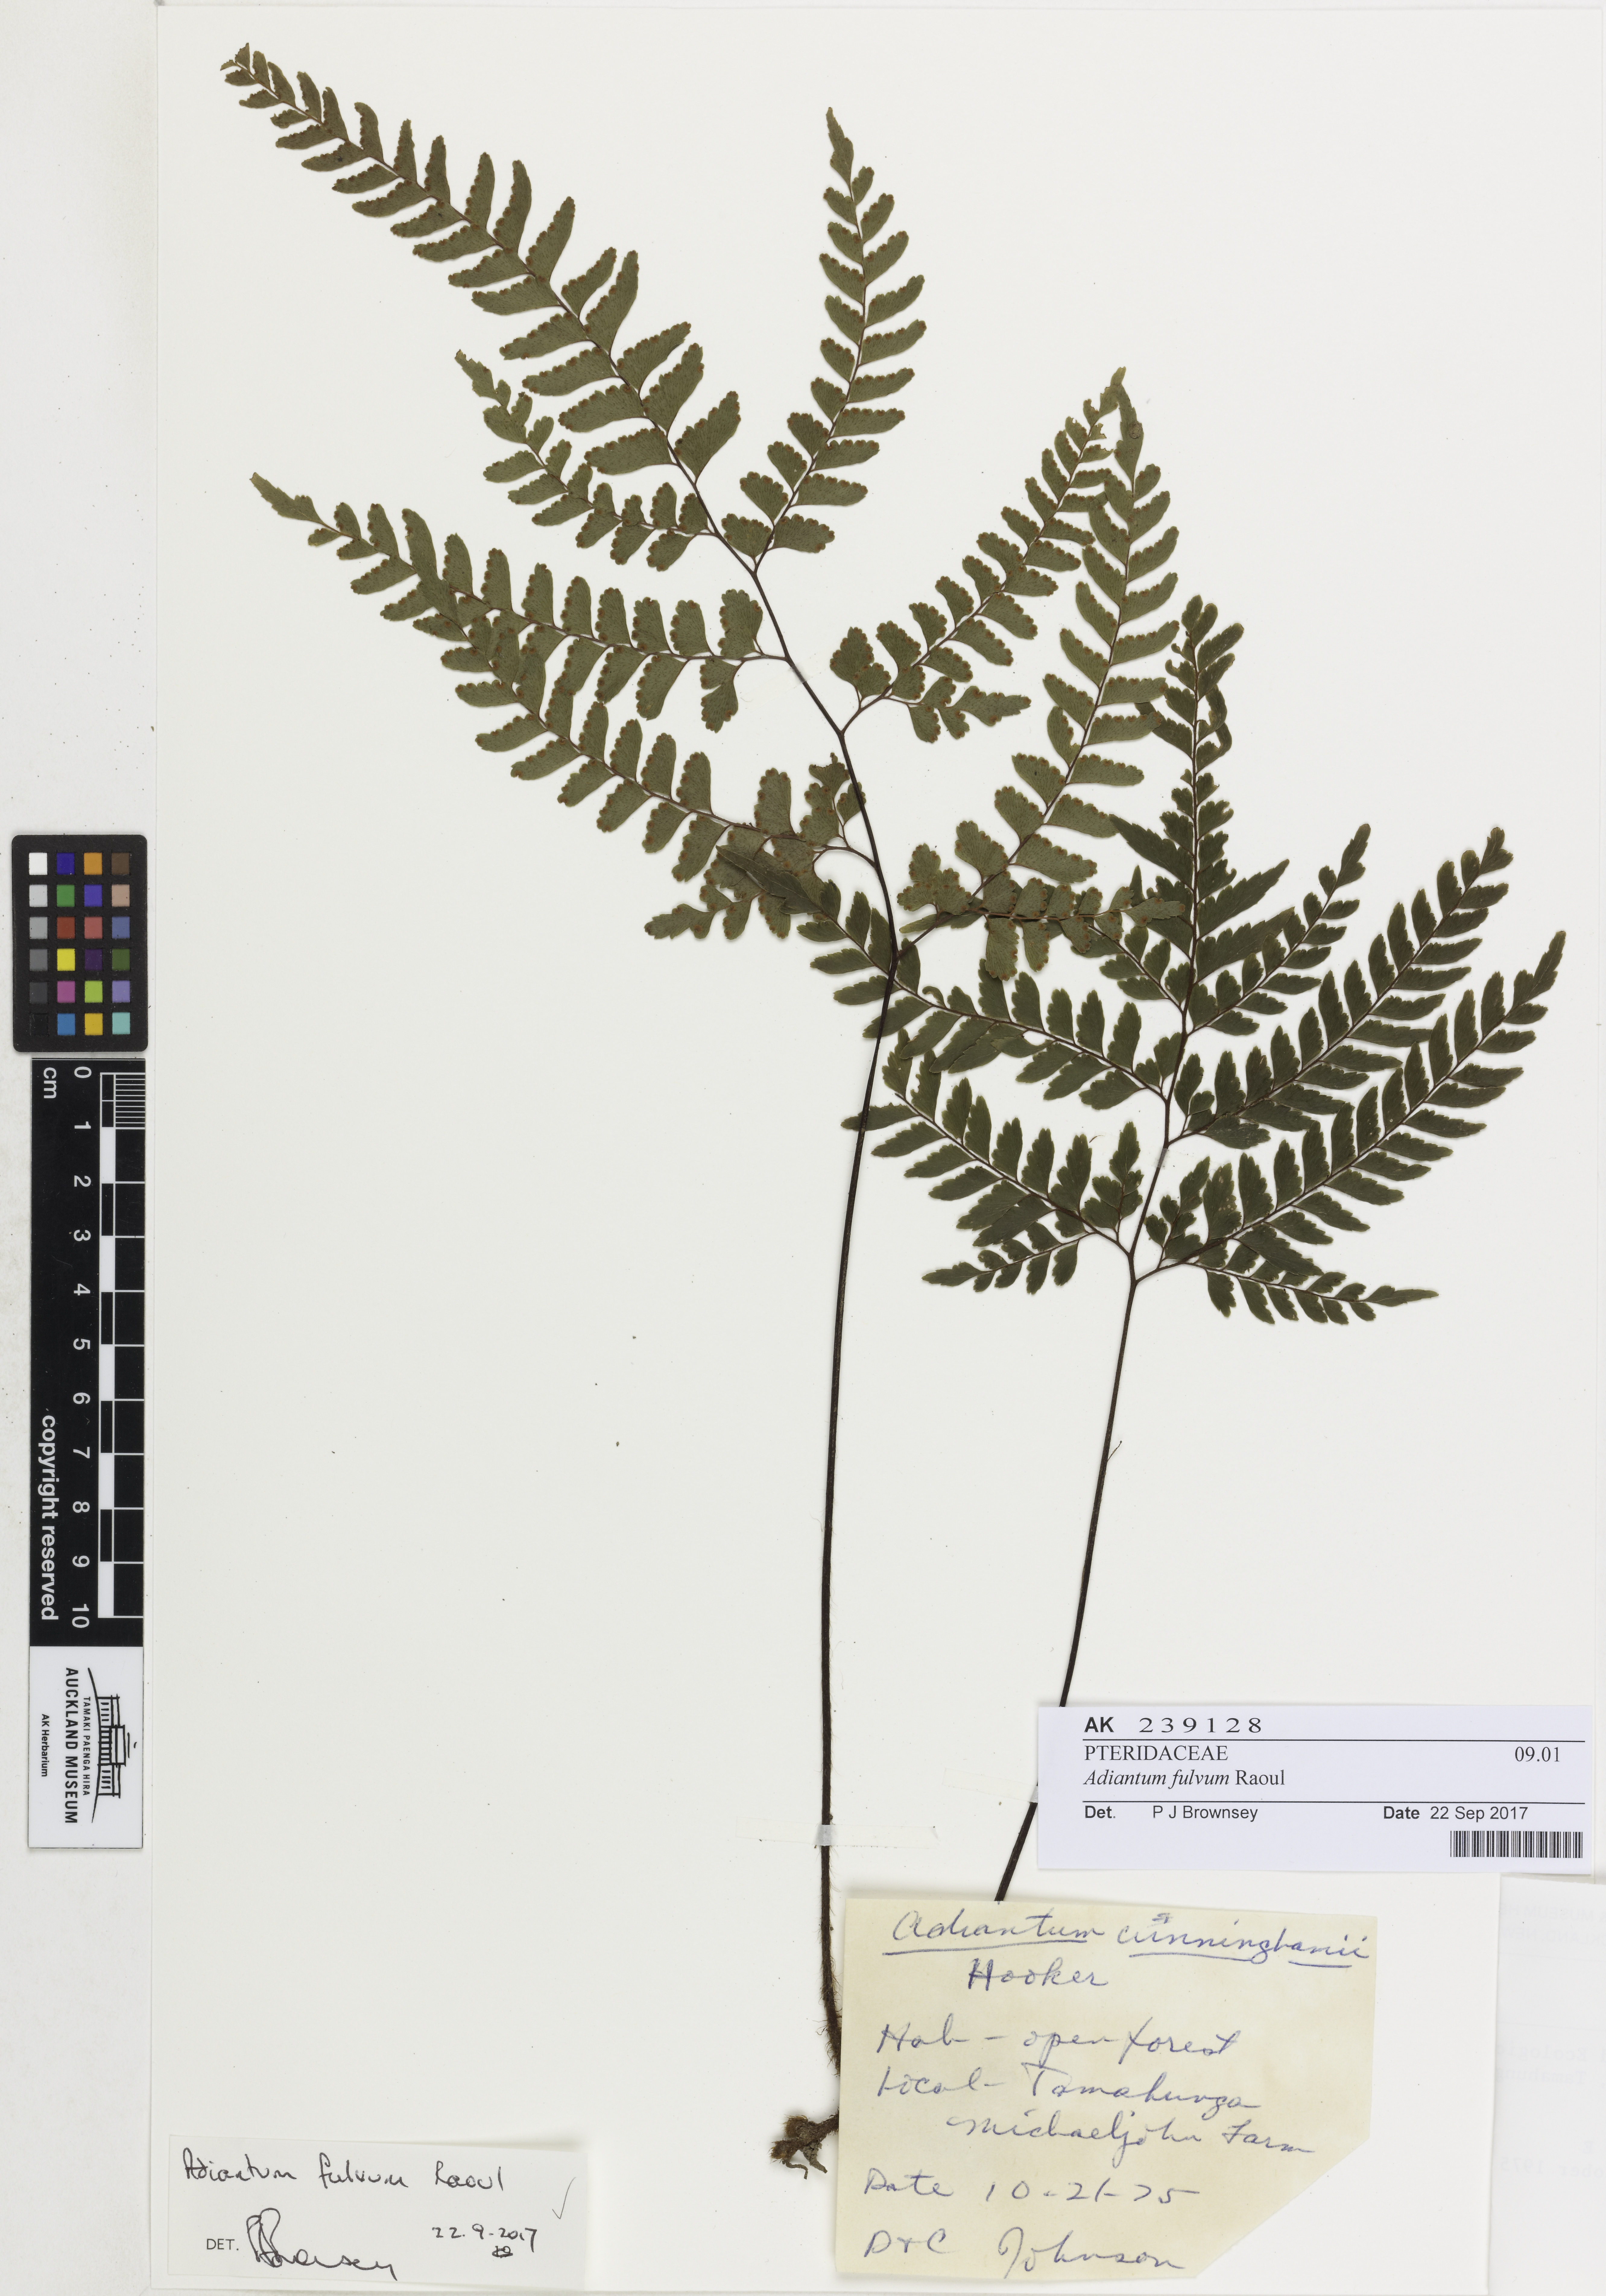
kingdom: Plantae
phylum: Tracheophyta
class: Polypodiopsida
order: Polypodiales
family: Pteridaceae
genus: Adiantum
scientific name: Adiantum fulvum
